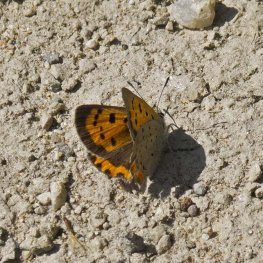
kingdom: Animalia
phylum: Arthropoda
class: Insecta
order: Lepidoptera
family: Lycaenidae
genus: Lycaena
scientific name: Lycaena phlaeas
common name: American Copper
